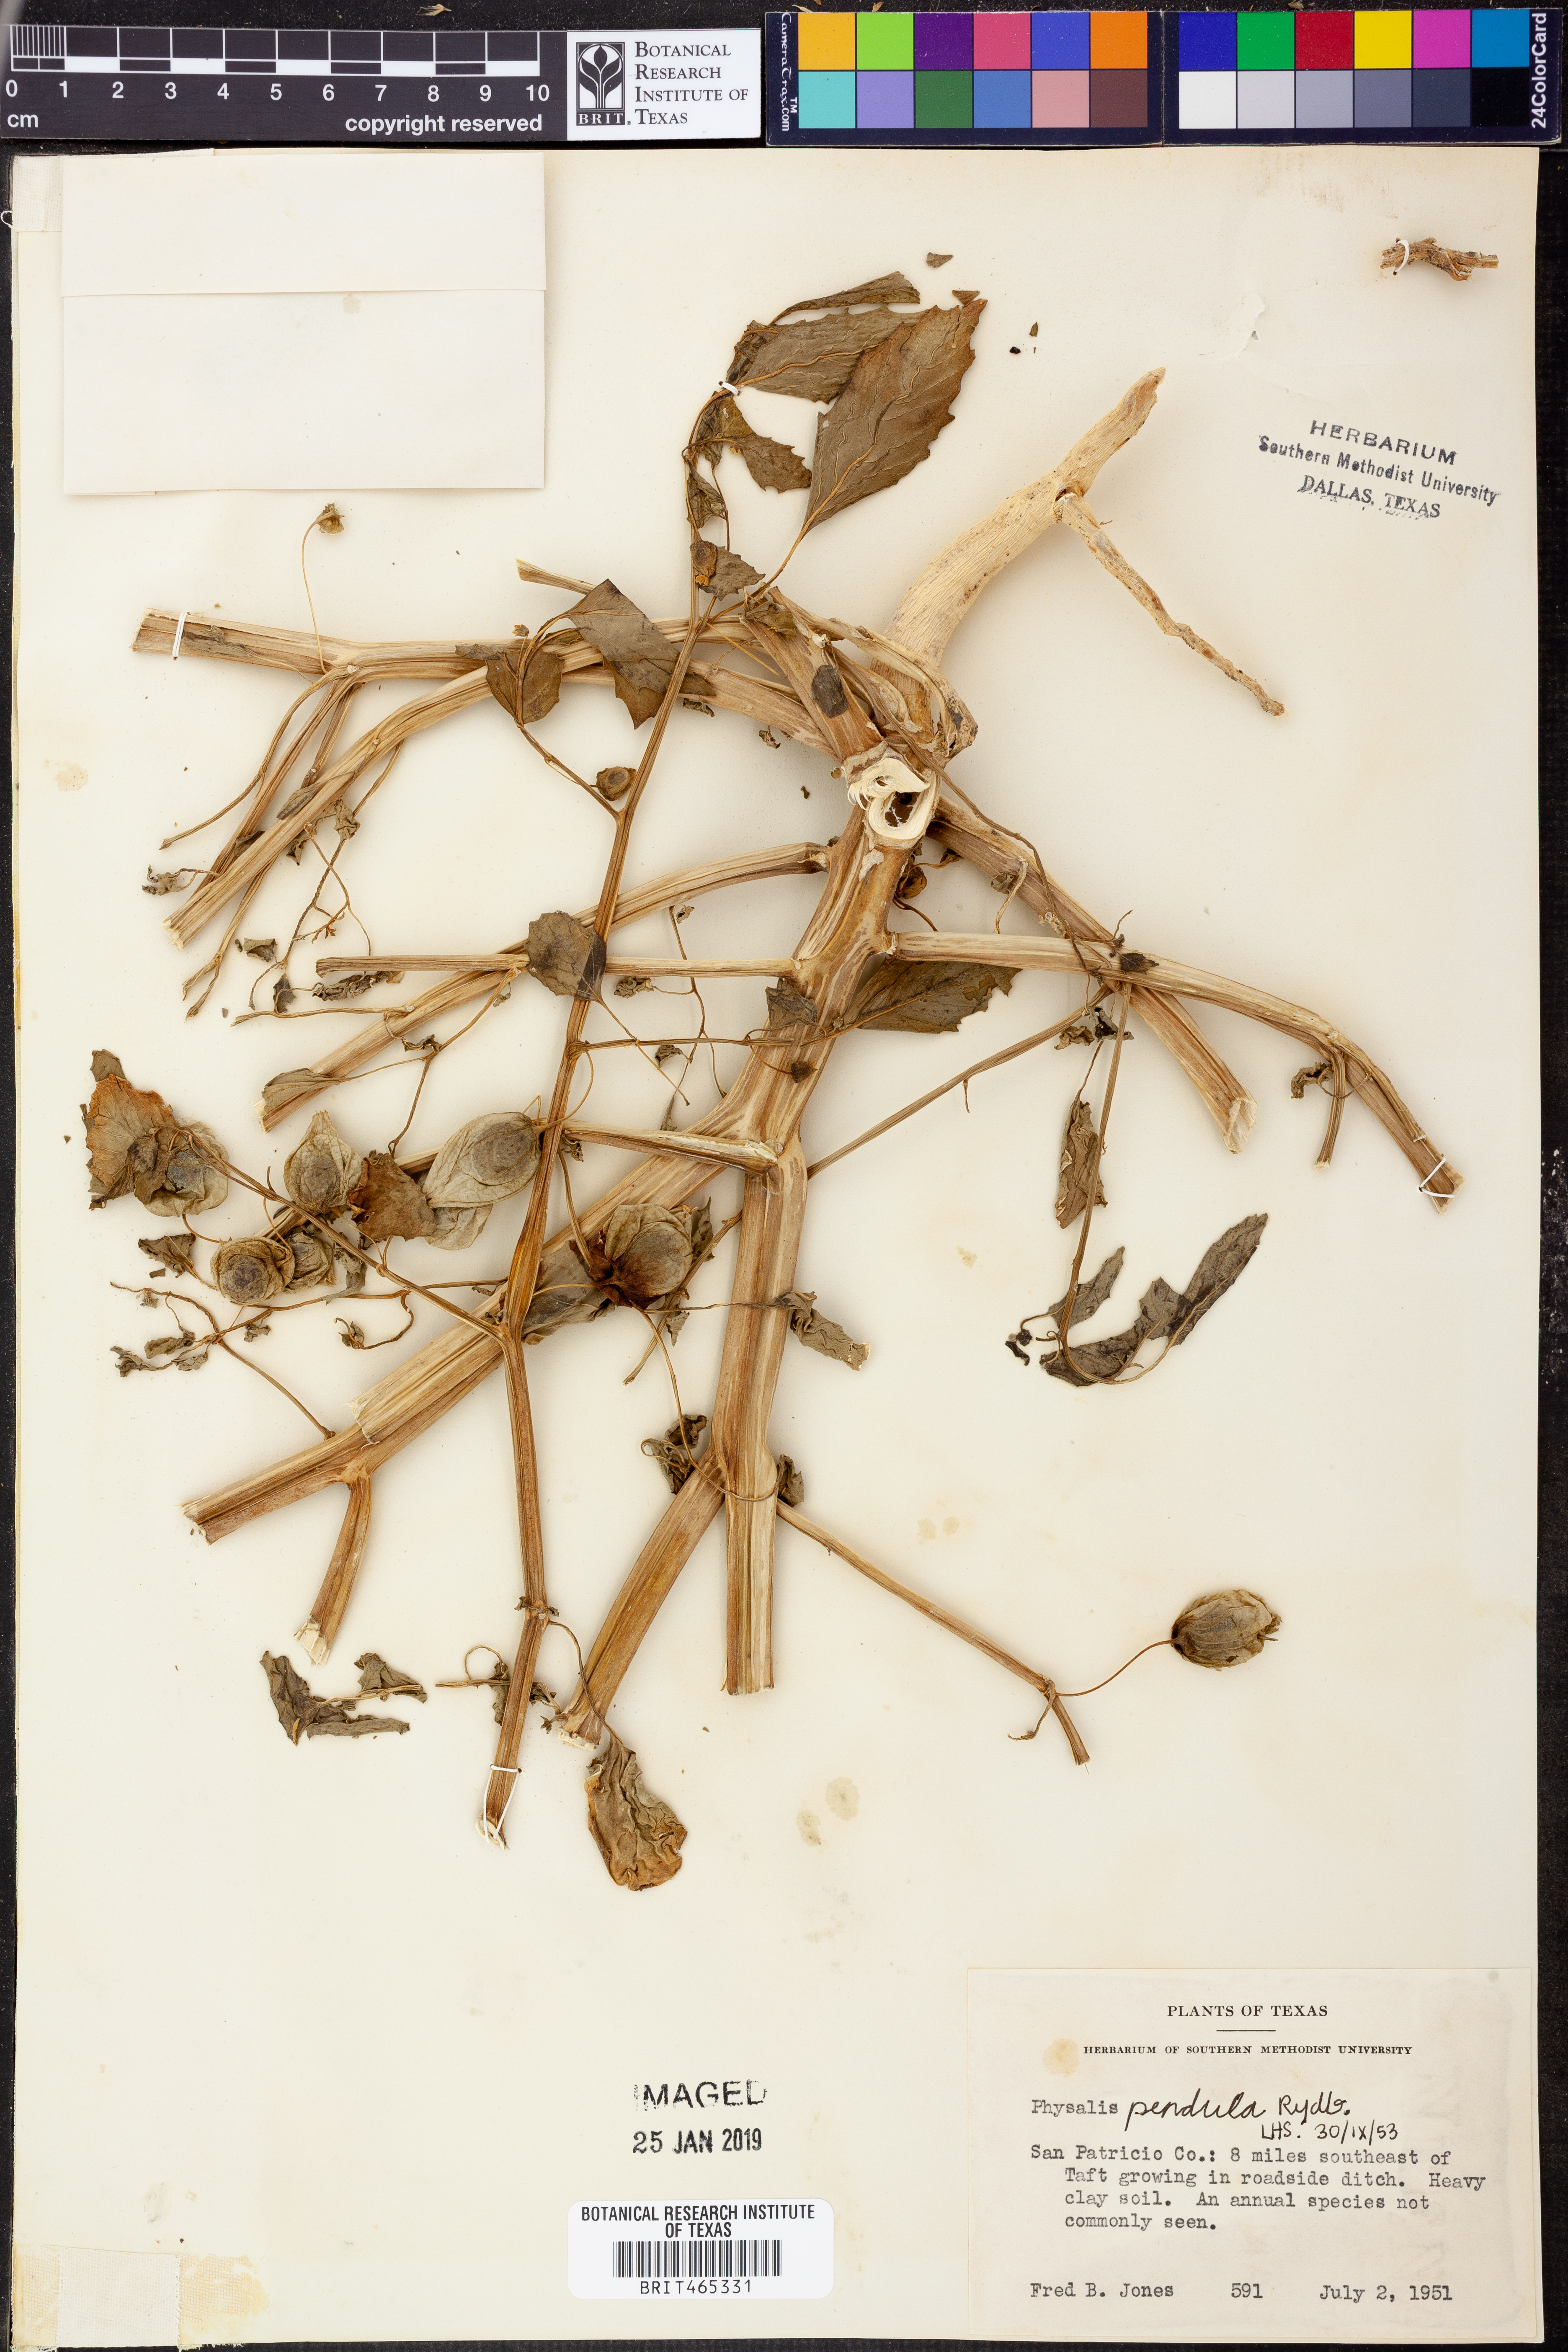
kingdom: Plantae
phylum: Tracheophyta
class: Magnoliopsida
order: Solanales
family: Solanaceae
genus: Physalis
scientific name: Physalis angulata
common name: Angular winter-cherry
